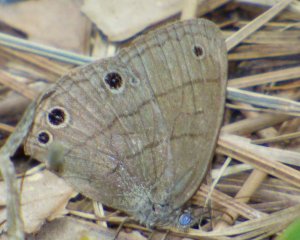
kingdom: Animalia
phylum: Arthropoda
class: Insecta
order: Lepidoptera
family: Nymphalidae
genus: Hermeuptychia
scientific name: Hermeuptychia hermes
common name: Carolina Satyr
